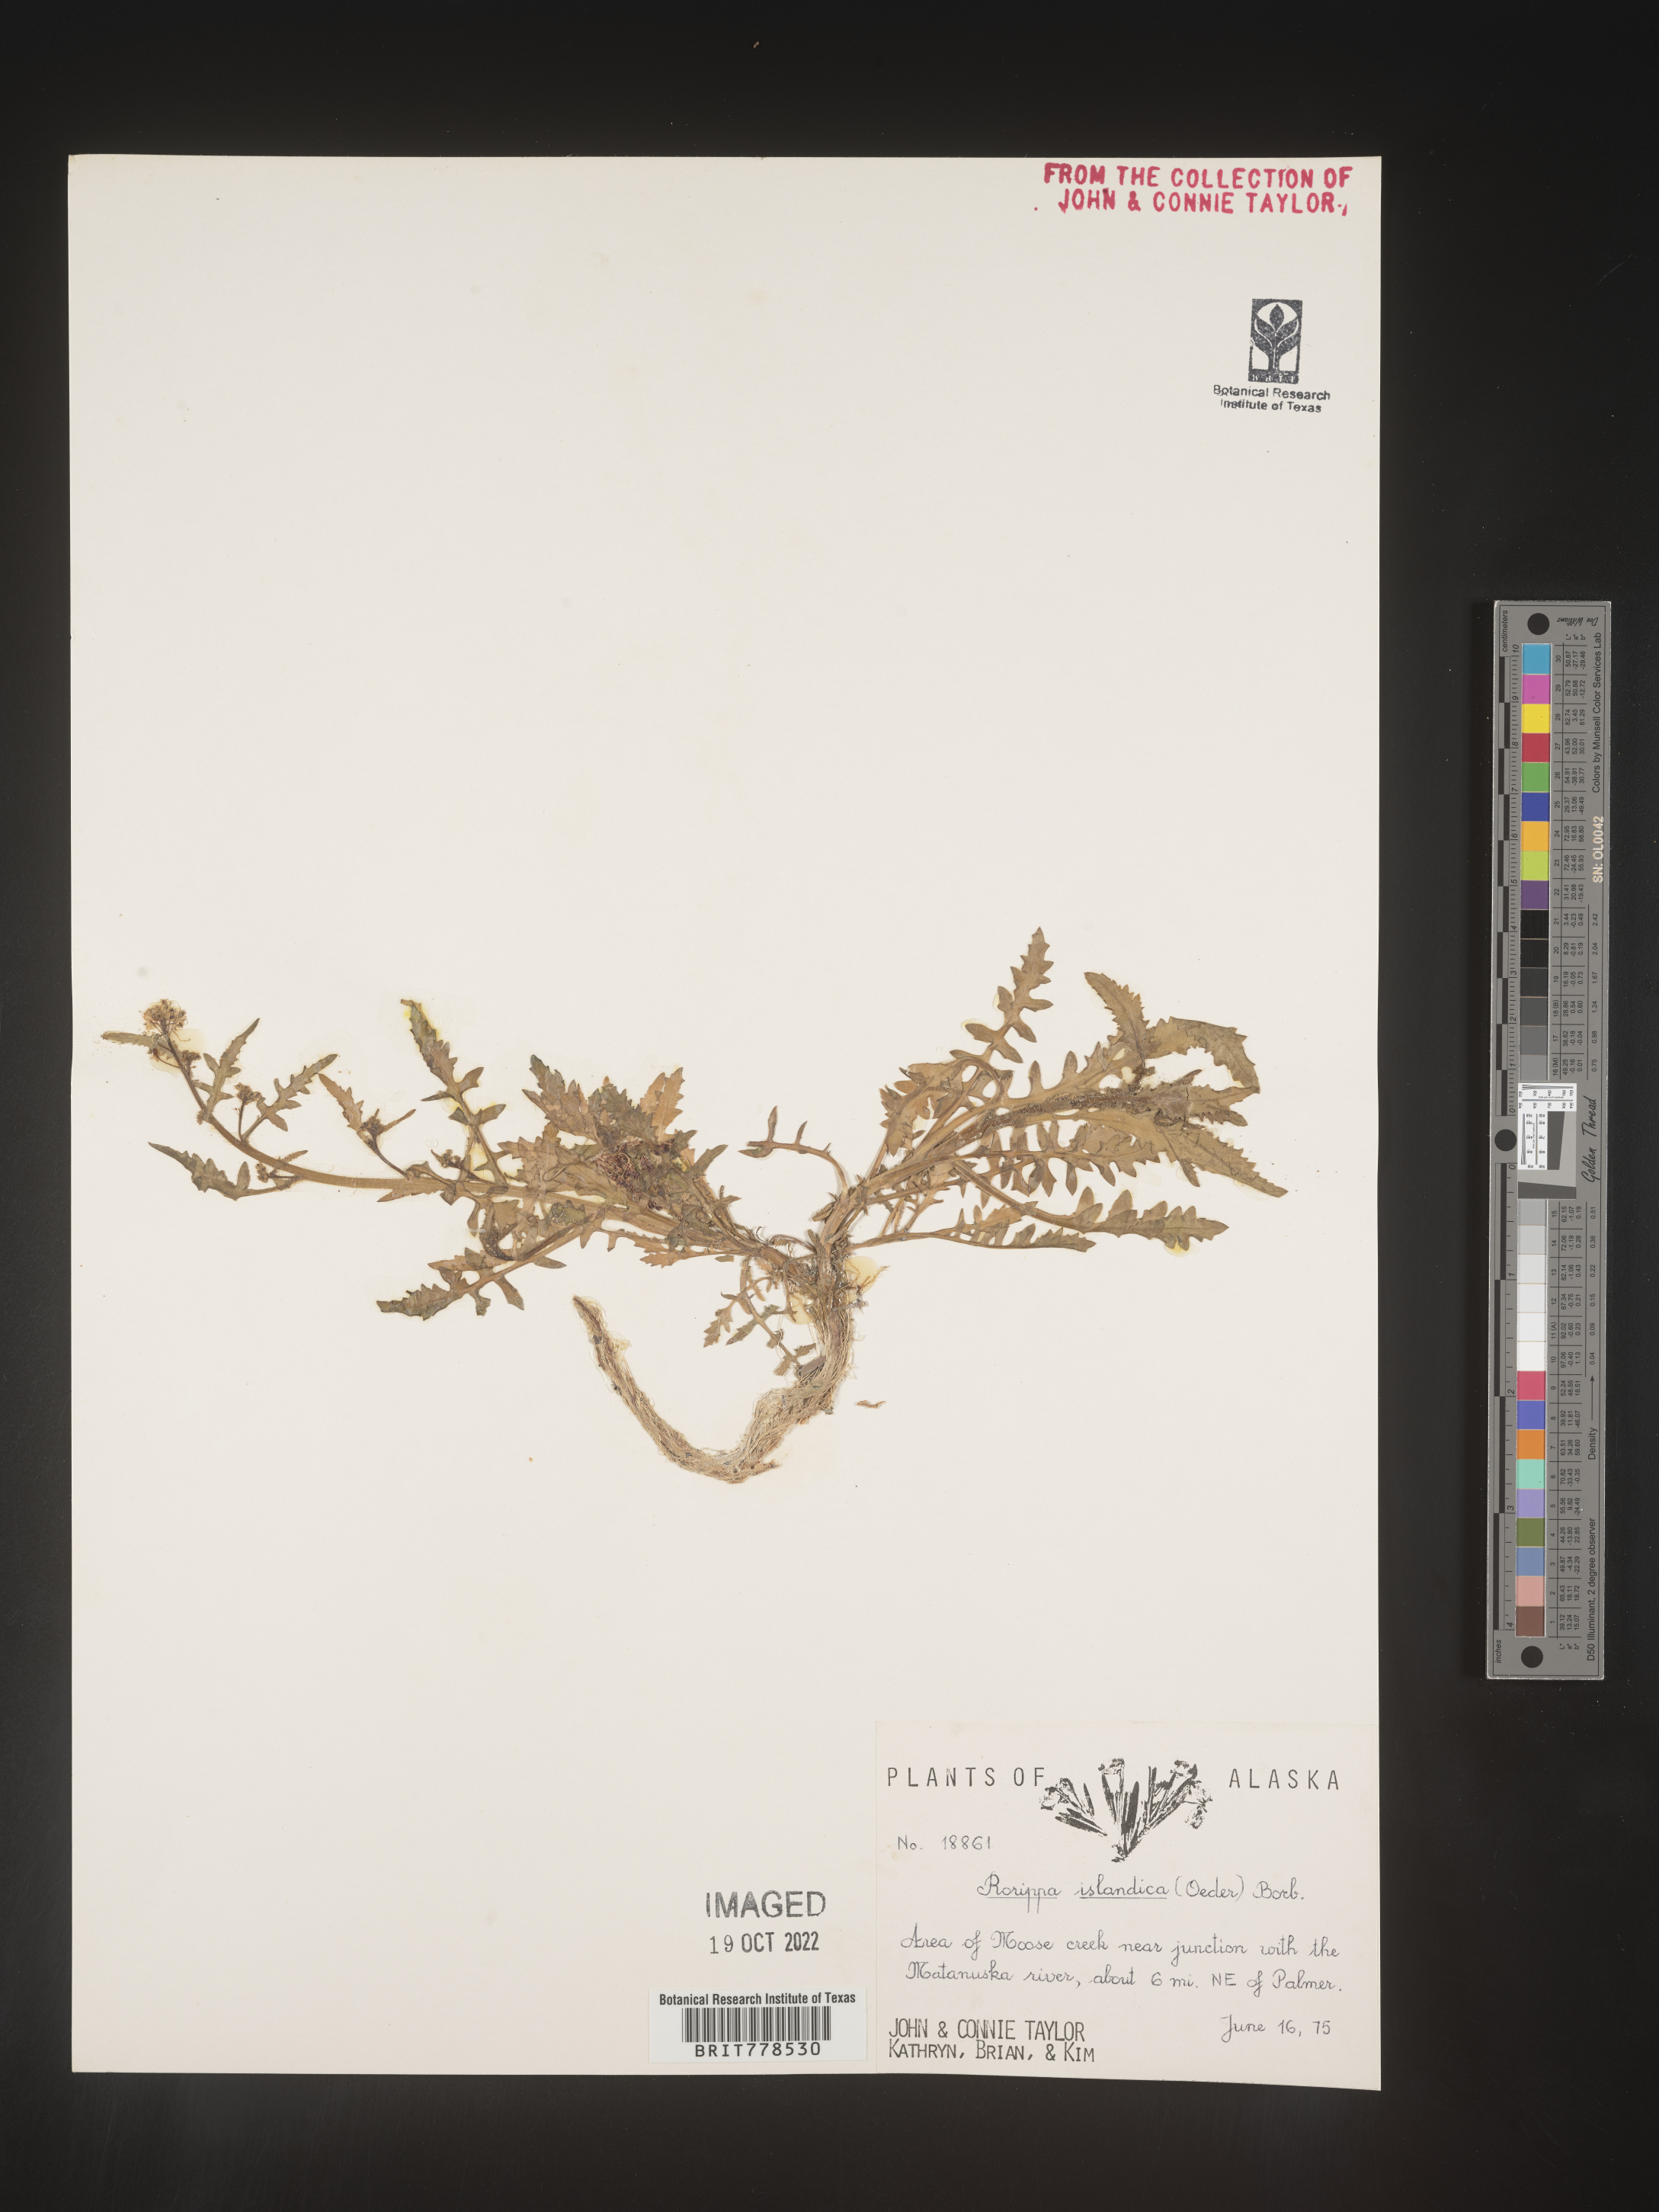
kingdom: Plantae
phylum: Tracheophyta
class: Magnoliopsida
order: Brassicales
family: Brassicaceae
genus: Rorippa
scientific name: Rorippa
